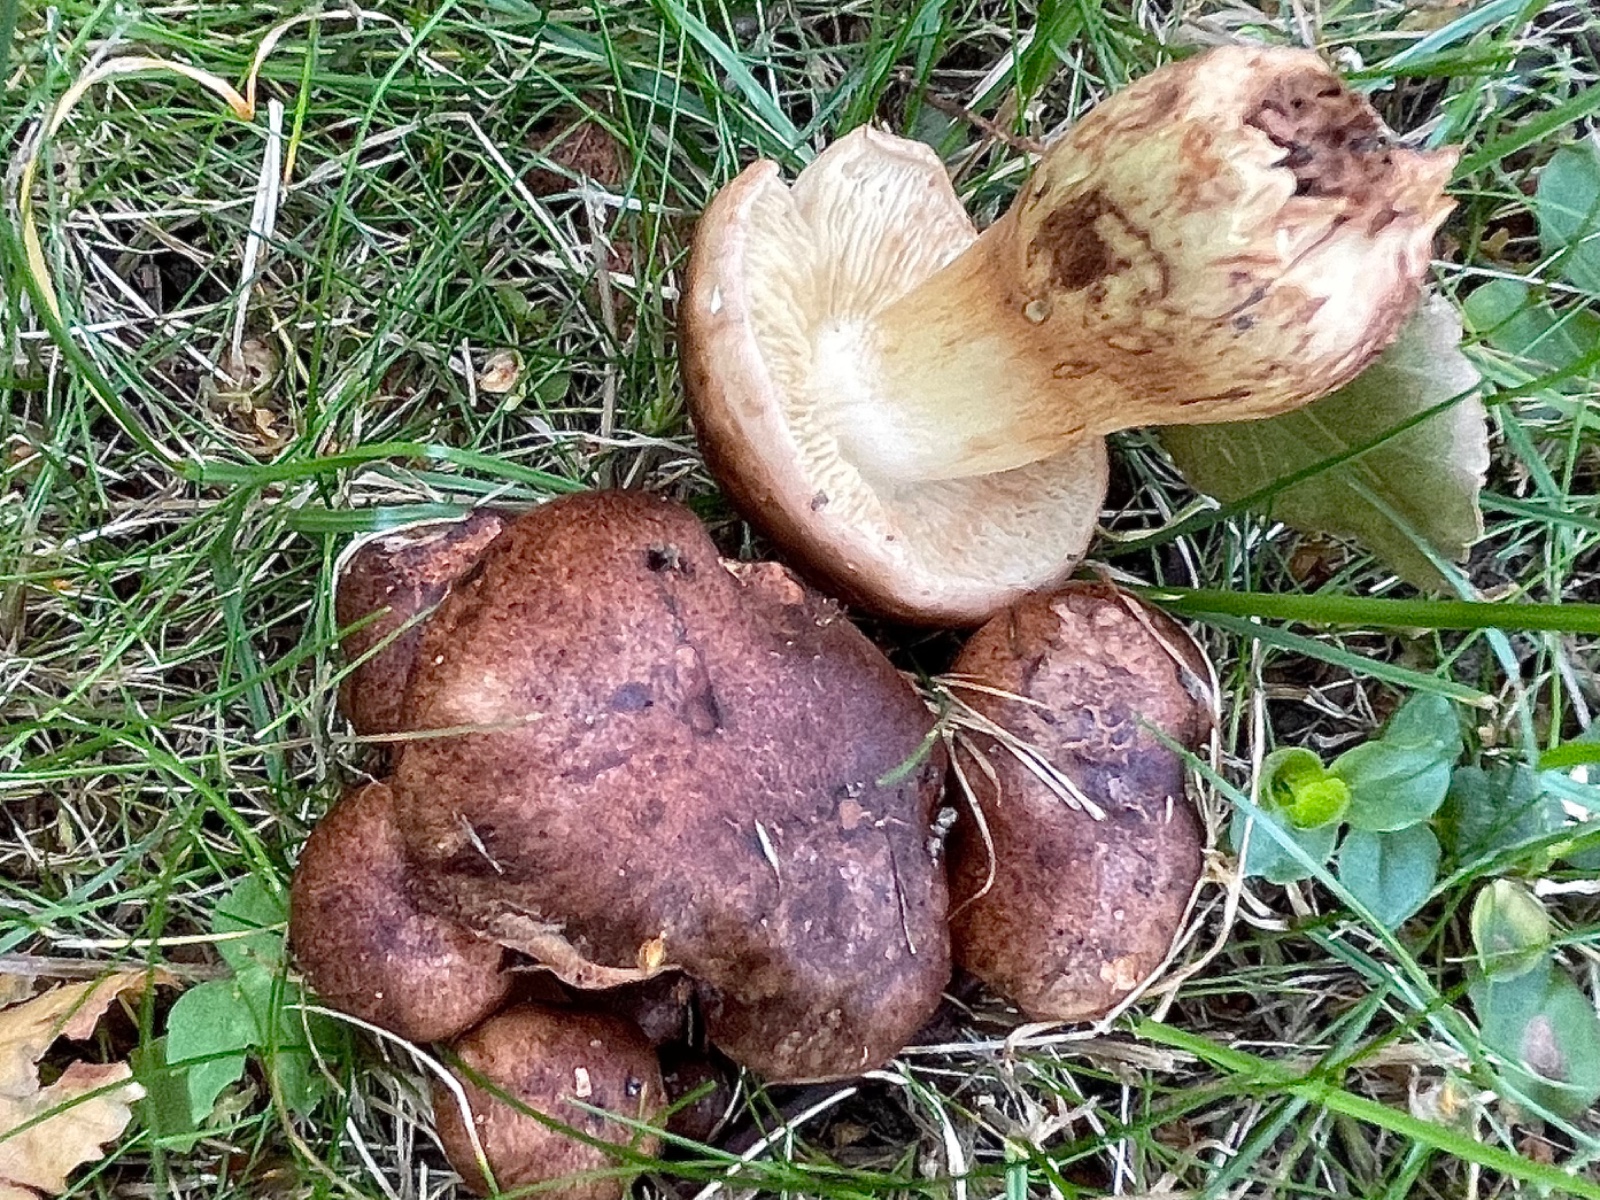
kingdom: Fungi
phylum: Basidiomycota
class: Agaricomycetes
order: Agaricales
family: Tricholomataceae
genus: Tricholoma
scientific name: Tricholoma fulvum
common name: birke-ridderhat
